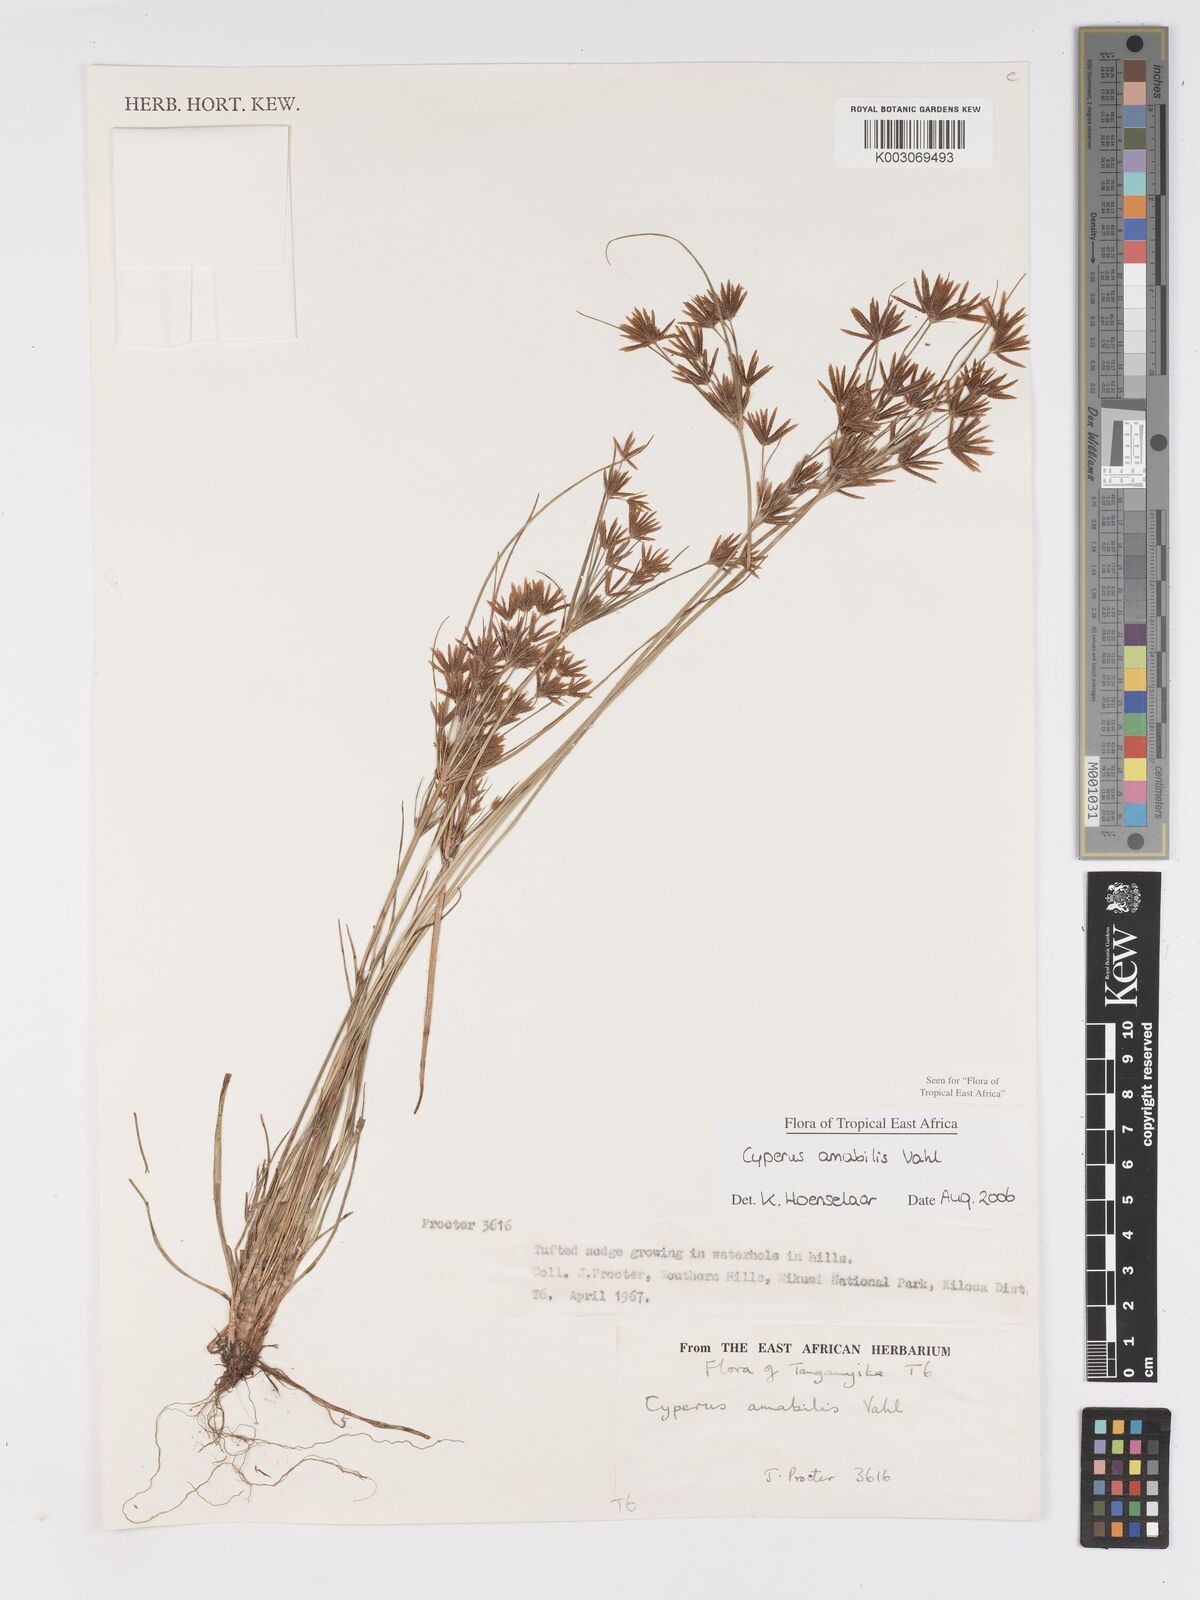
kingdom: Plantae
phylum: Tracheophyta
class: Liliopsida
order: Poales
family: Cyperaceae
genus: Cyperus
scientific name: Cyperus amabilis
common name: Foothill flat sedge
